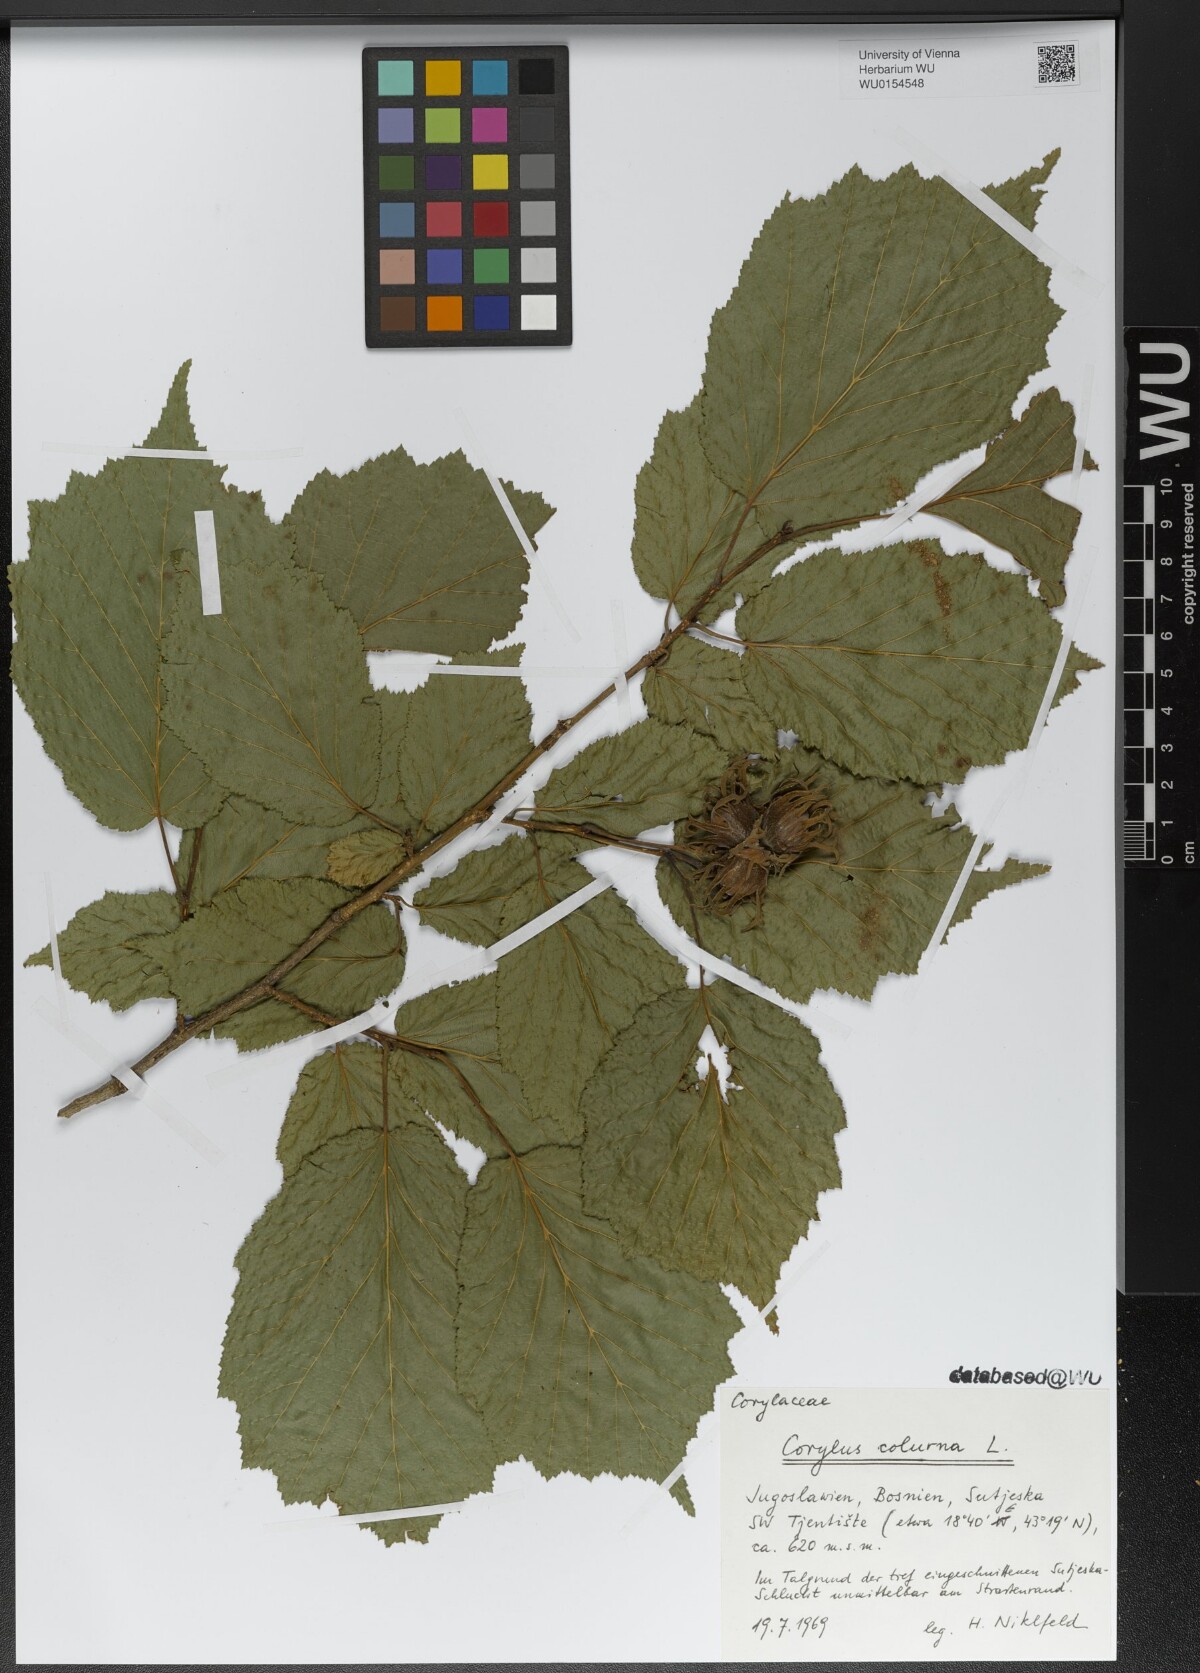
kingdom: Plantae
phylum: Tracheophyta
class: Magnoliopsida
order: Fagales
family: Betulaceae
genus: Corylus
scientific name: Corylus colurna
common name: Turkish hazel
